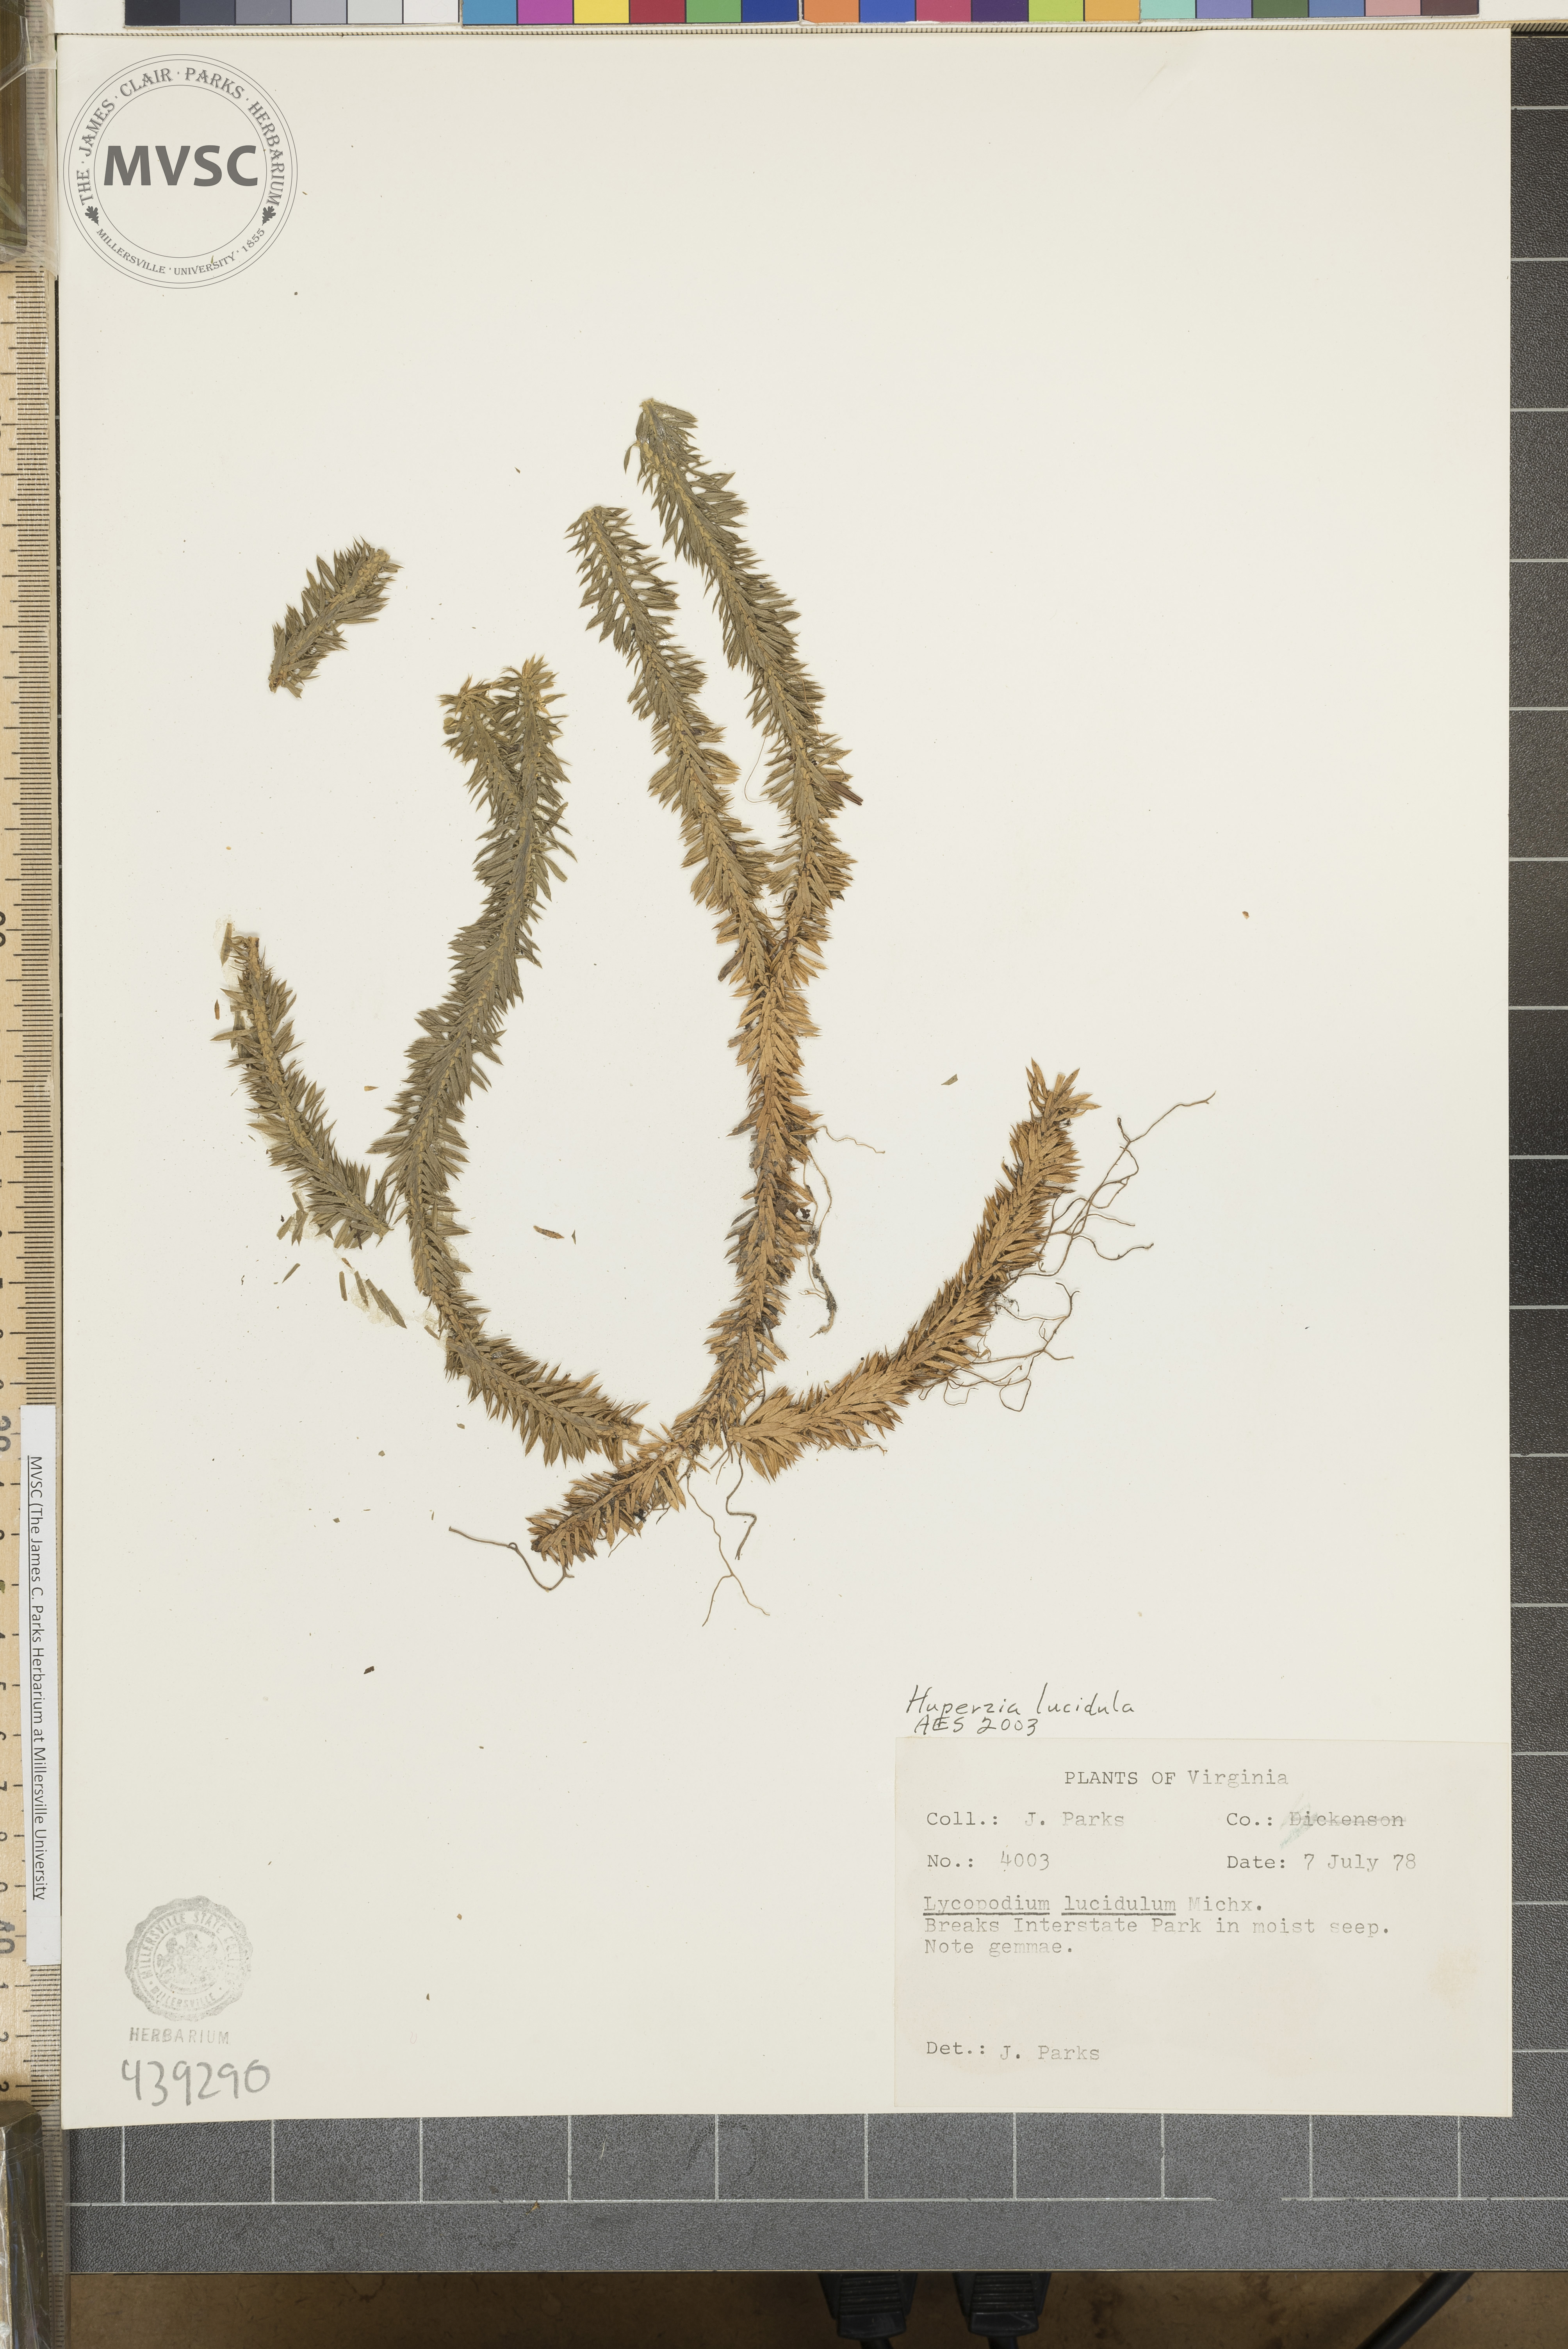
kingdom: Plantae
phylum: Tracheophyta
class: Lycopodiopsida
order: Lycopodiales
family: Lycopodiaceae
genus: Huperzia
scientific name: Huperzia lucidula
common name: Shining clubmoss
